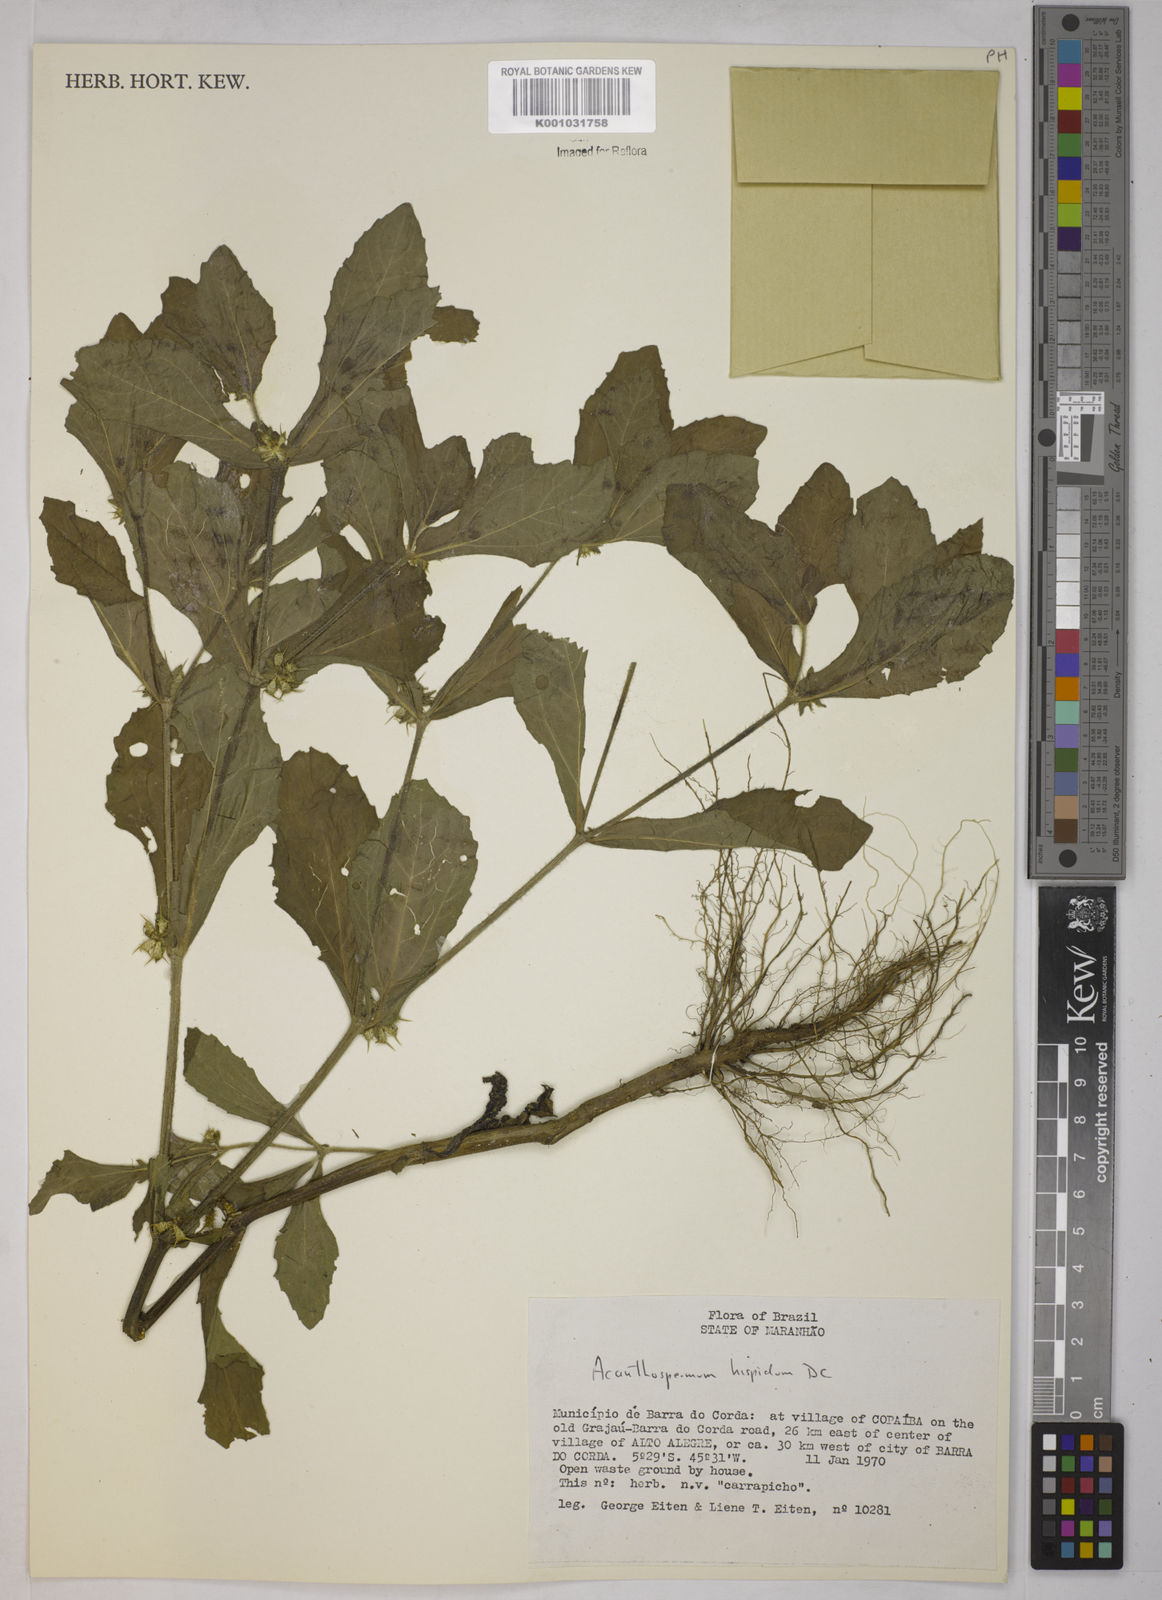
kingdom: Plantae
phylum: Tracheophyta
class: Magnoliopsida
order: Asterales
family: Asteraceae
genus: Acanthospermum
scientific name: Acanthospermum hispidum
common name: Hispid starbur
